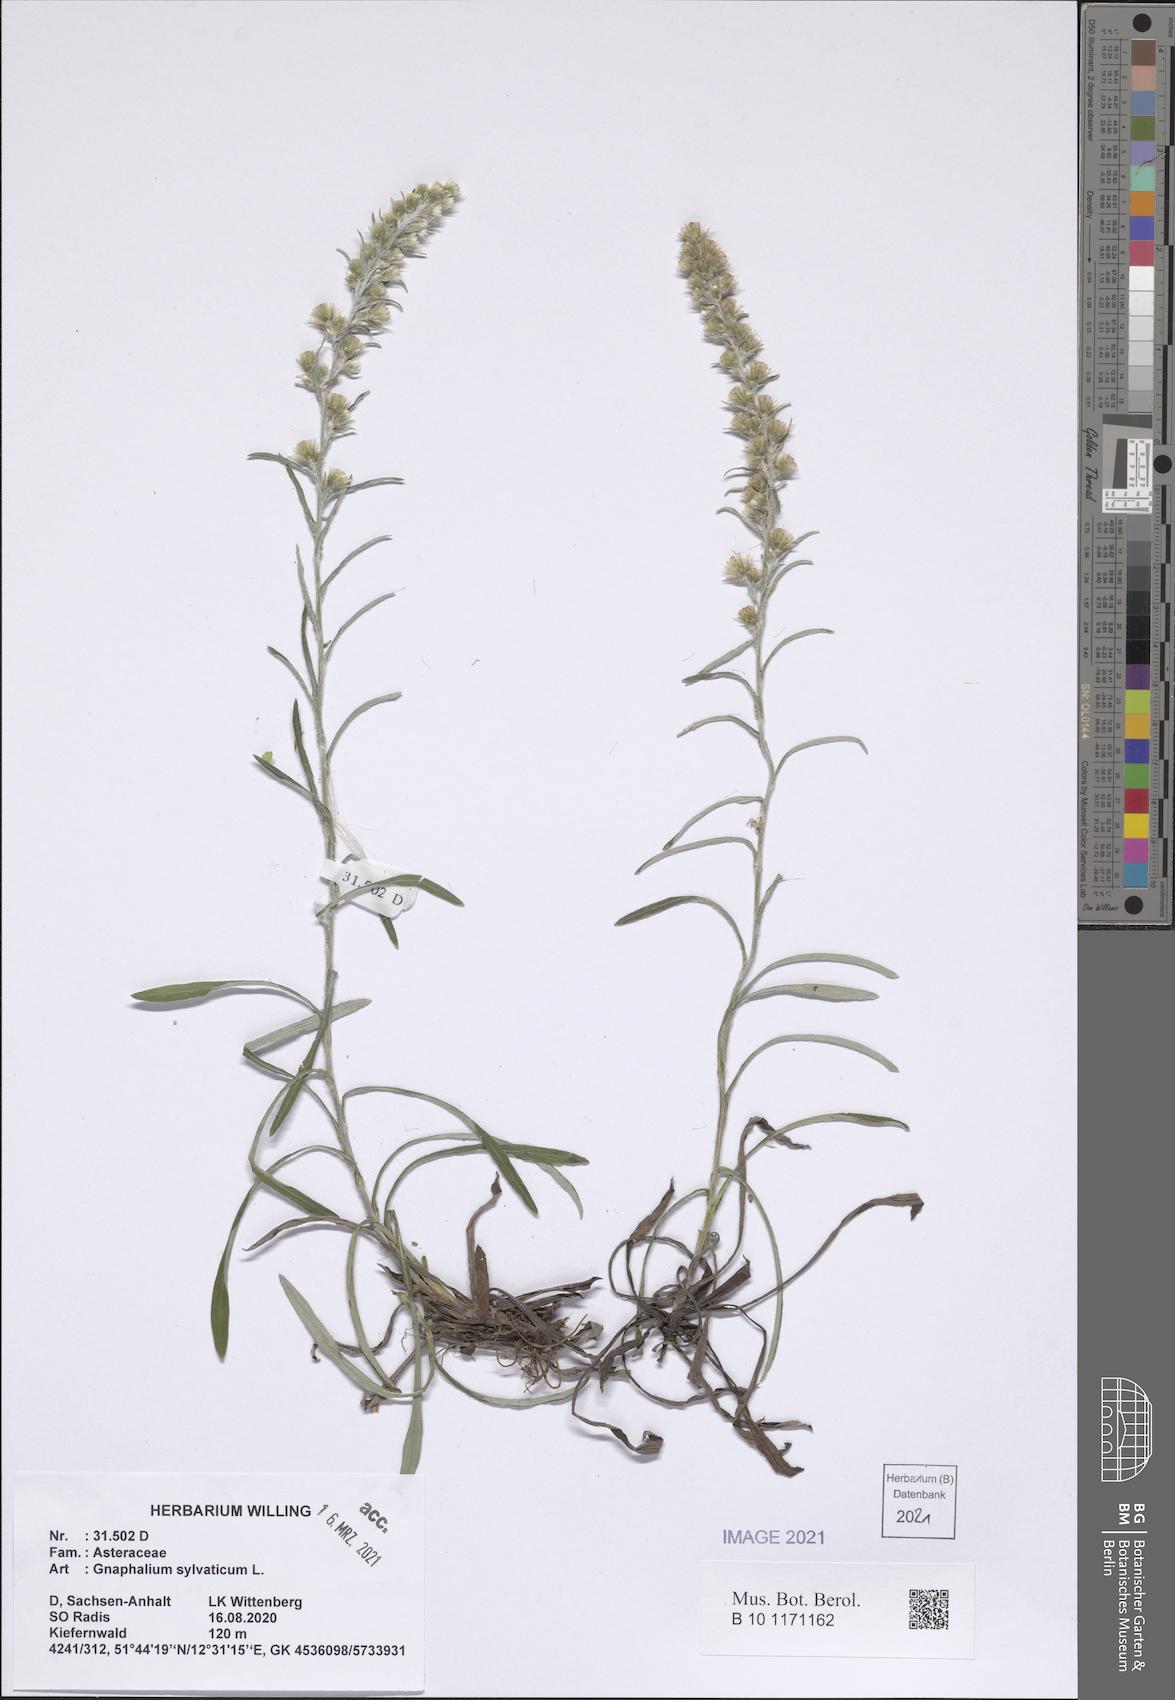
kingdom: Plantae
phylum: Tracheophyta
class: Magnoliopsida
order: Asterales
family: Asteraceae
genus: Omalotheca
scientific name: Omalotheca sylvatica
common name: Heath cudweed
